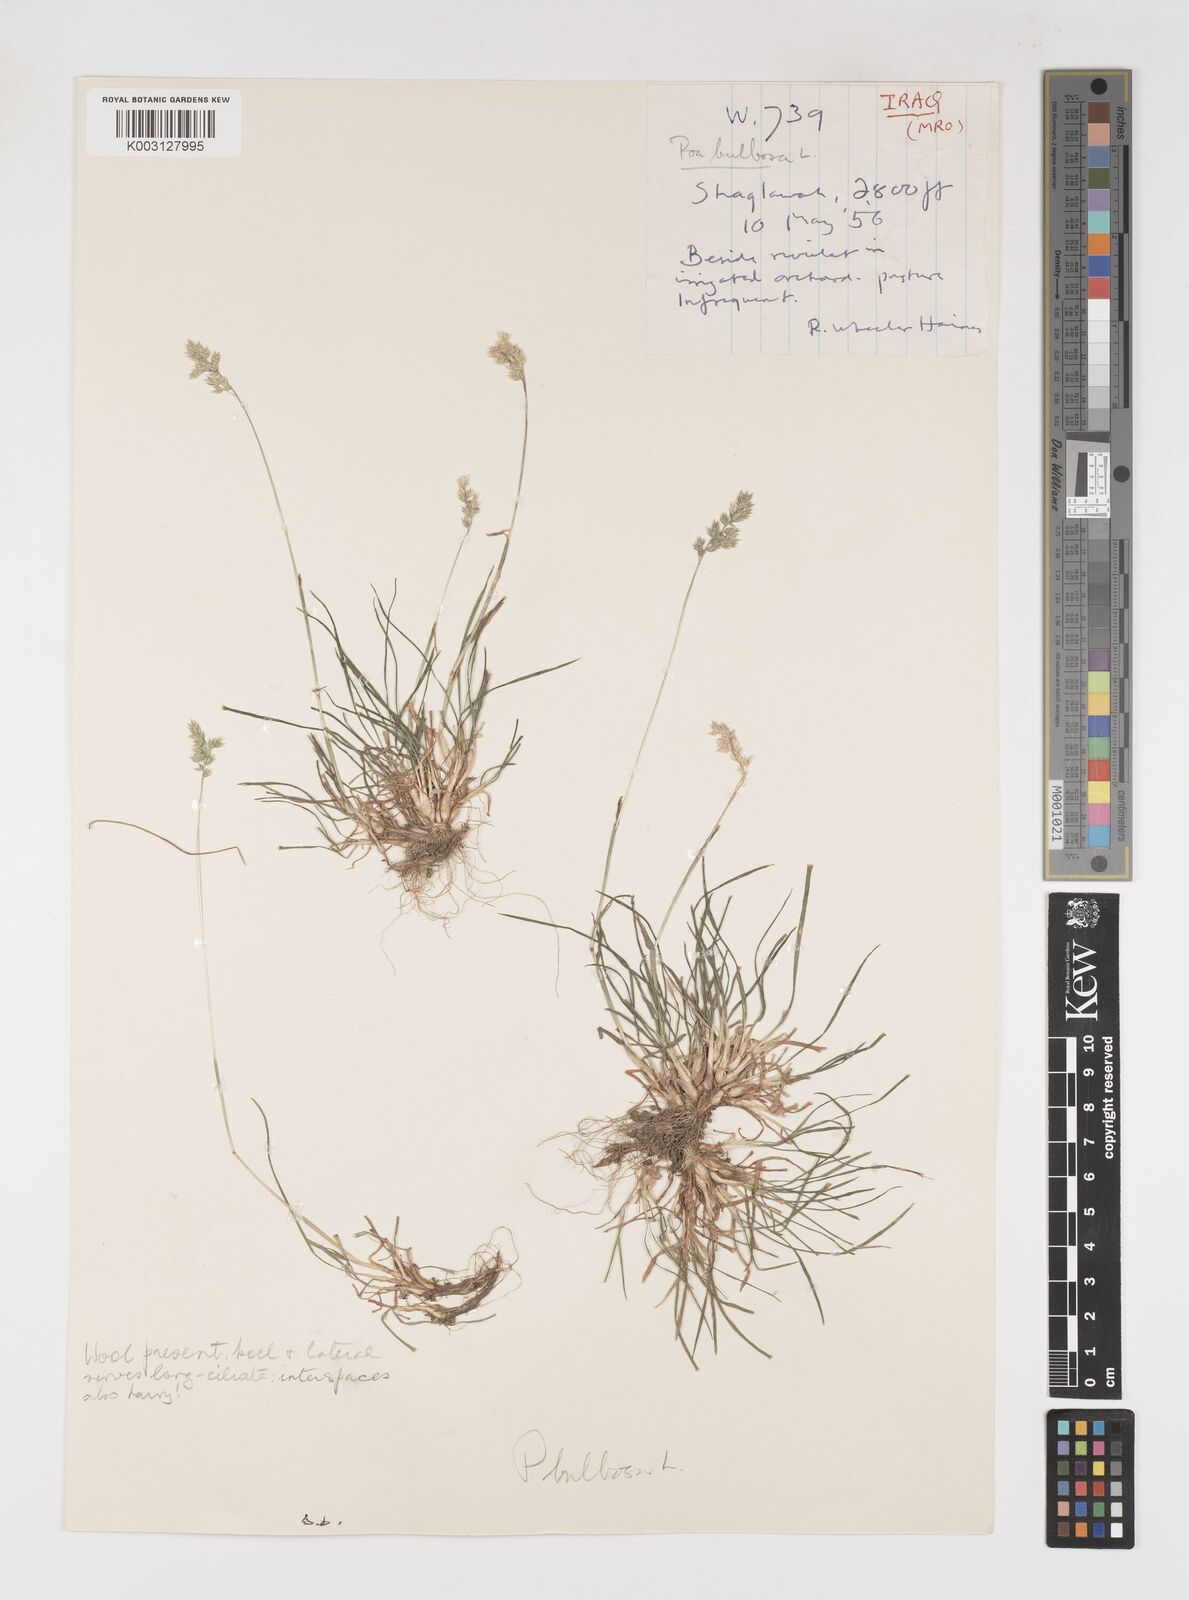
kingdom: Plantae
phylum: Tracheophyta
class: Liliopsida
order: Poales
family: Poaceae
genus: Poa
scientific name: Poa bulbosa
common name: Bulbous bluegrass
